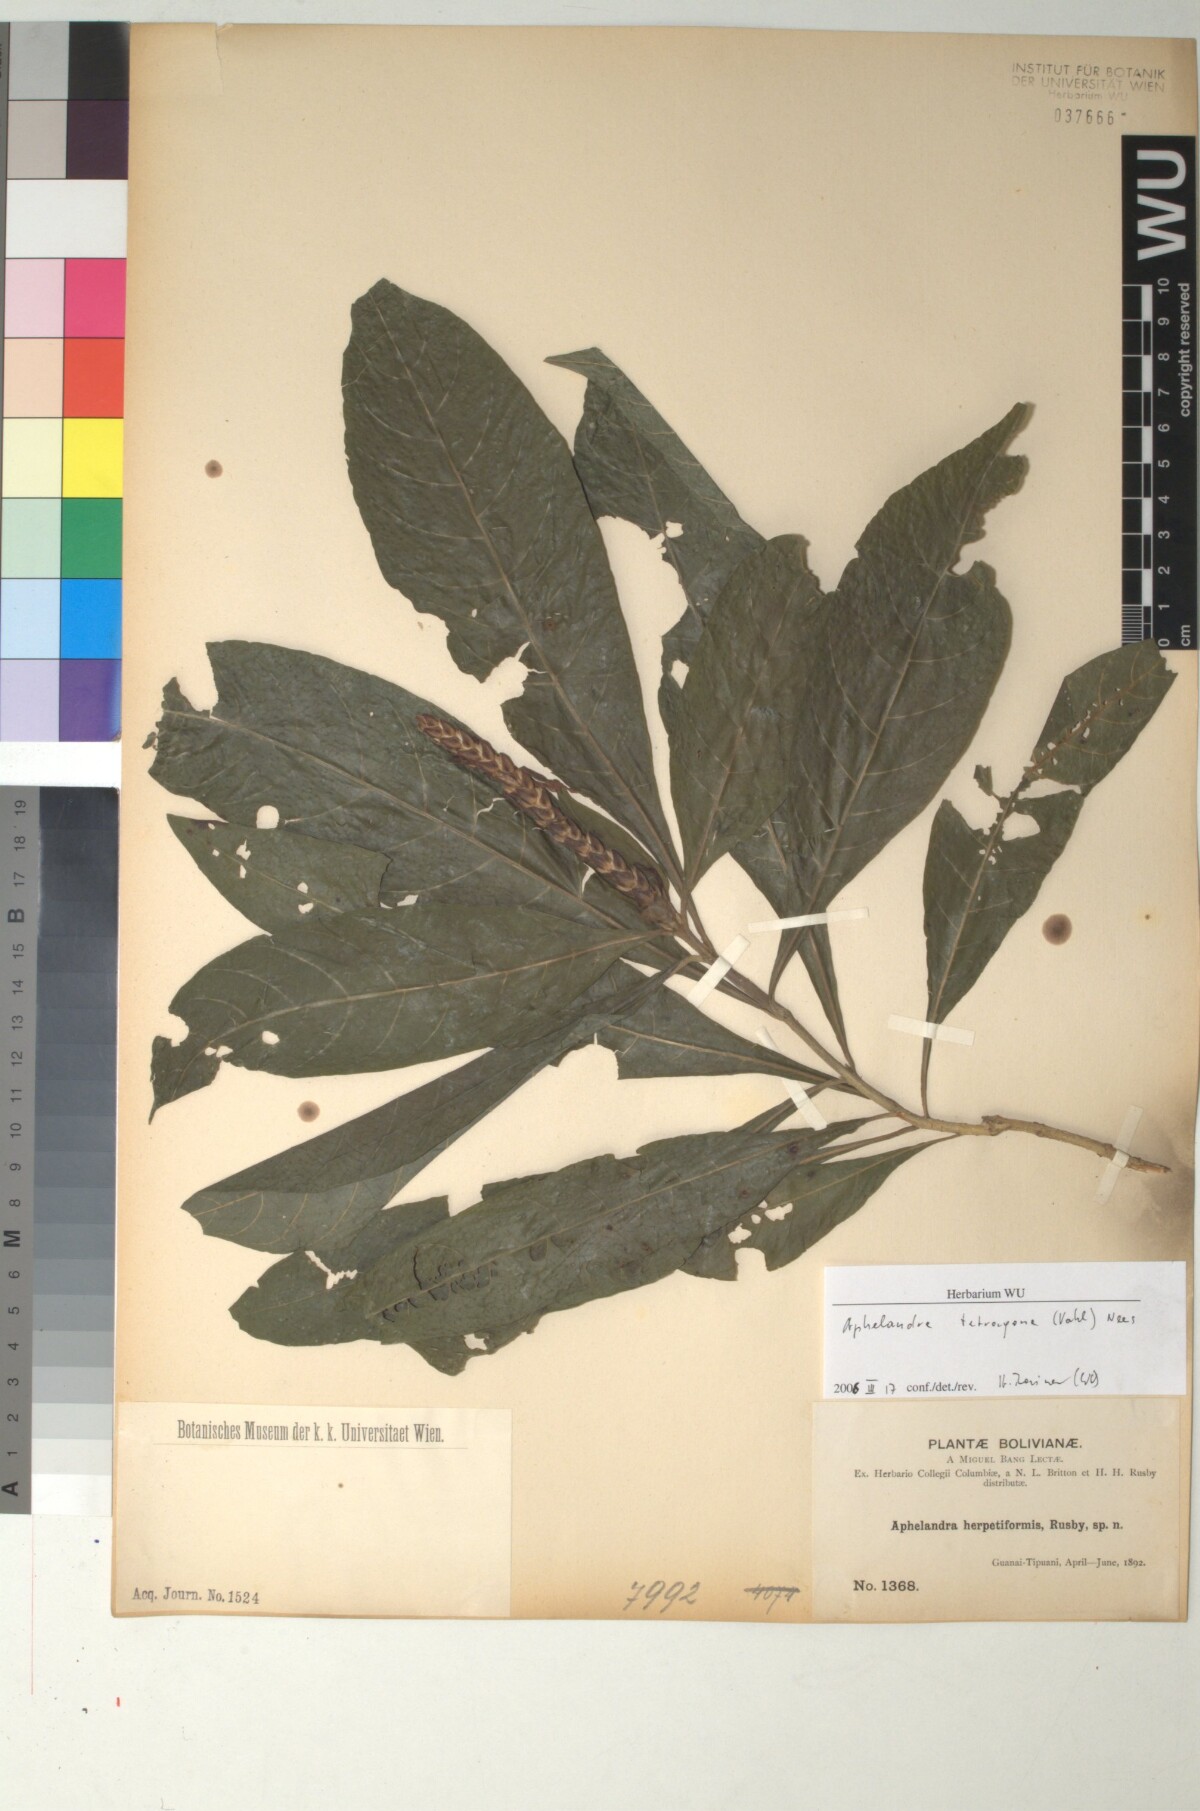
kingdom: Plantae
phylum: Tracheophyta
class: Magnoliopsida
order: Lamiales
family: Acanthaceae
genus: Aphelandra
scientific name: Aphelandra glabrata
